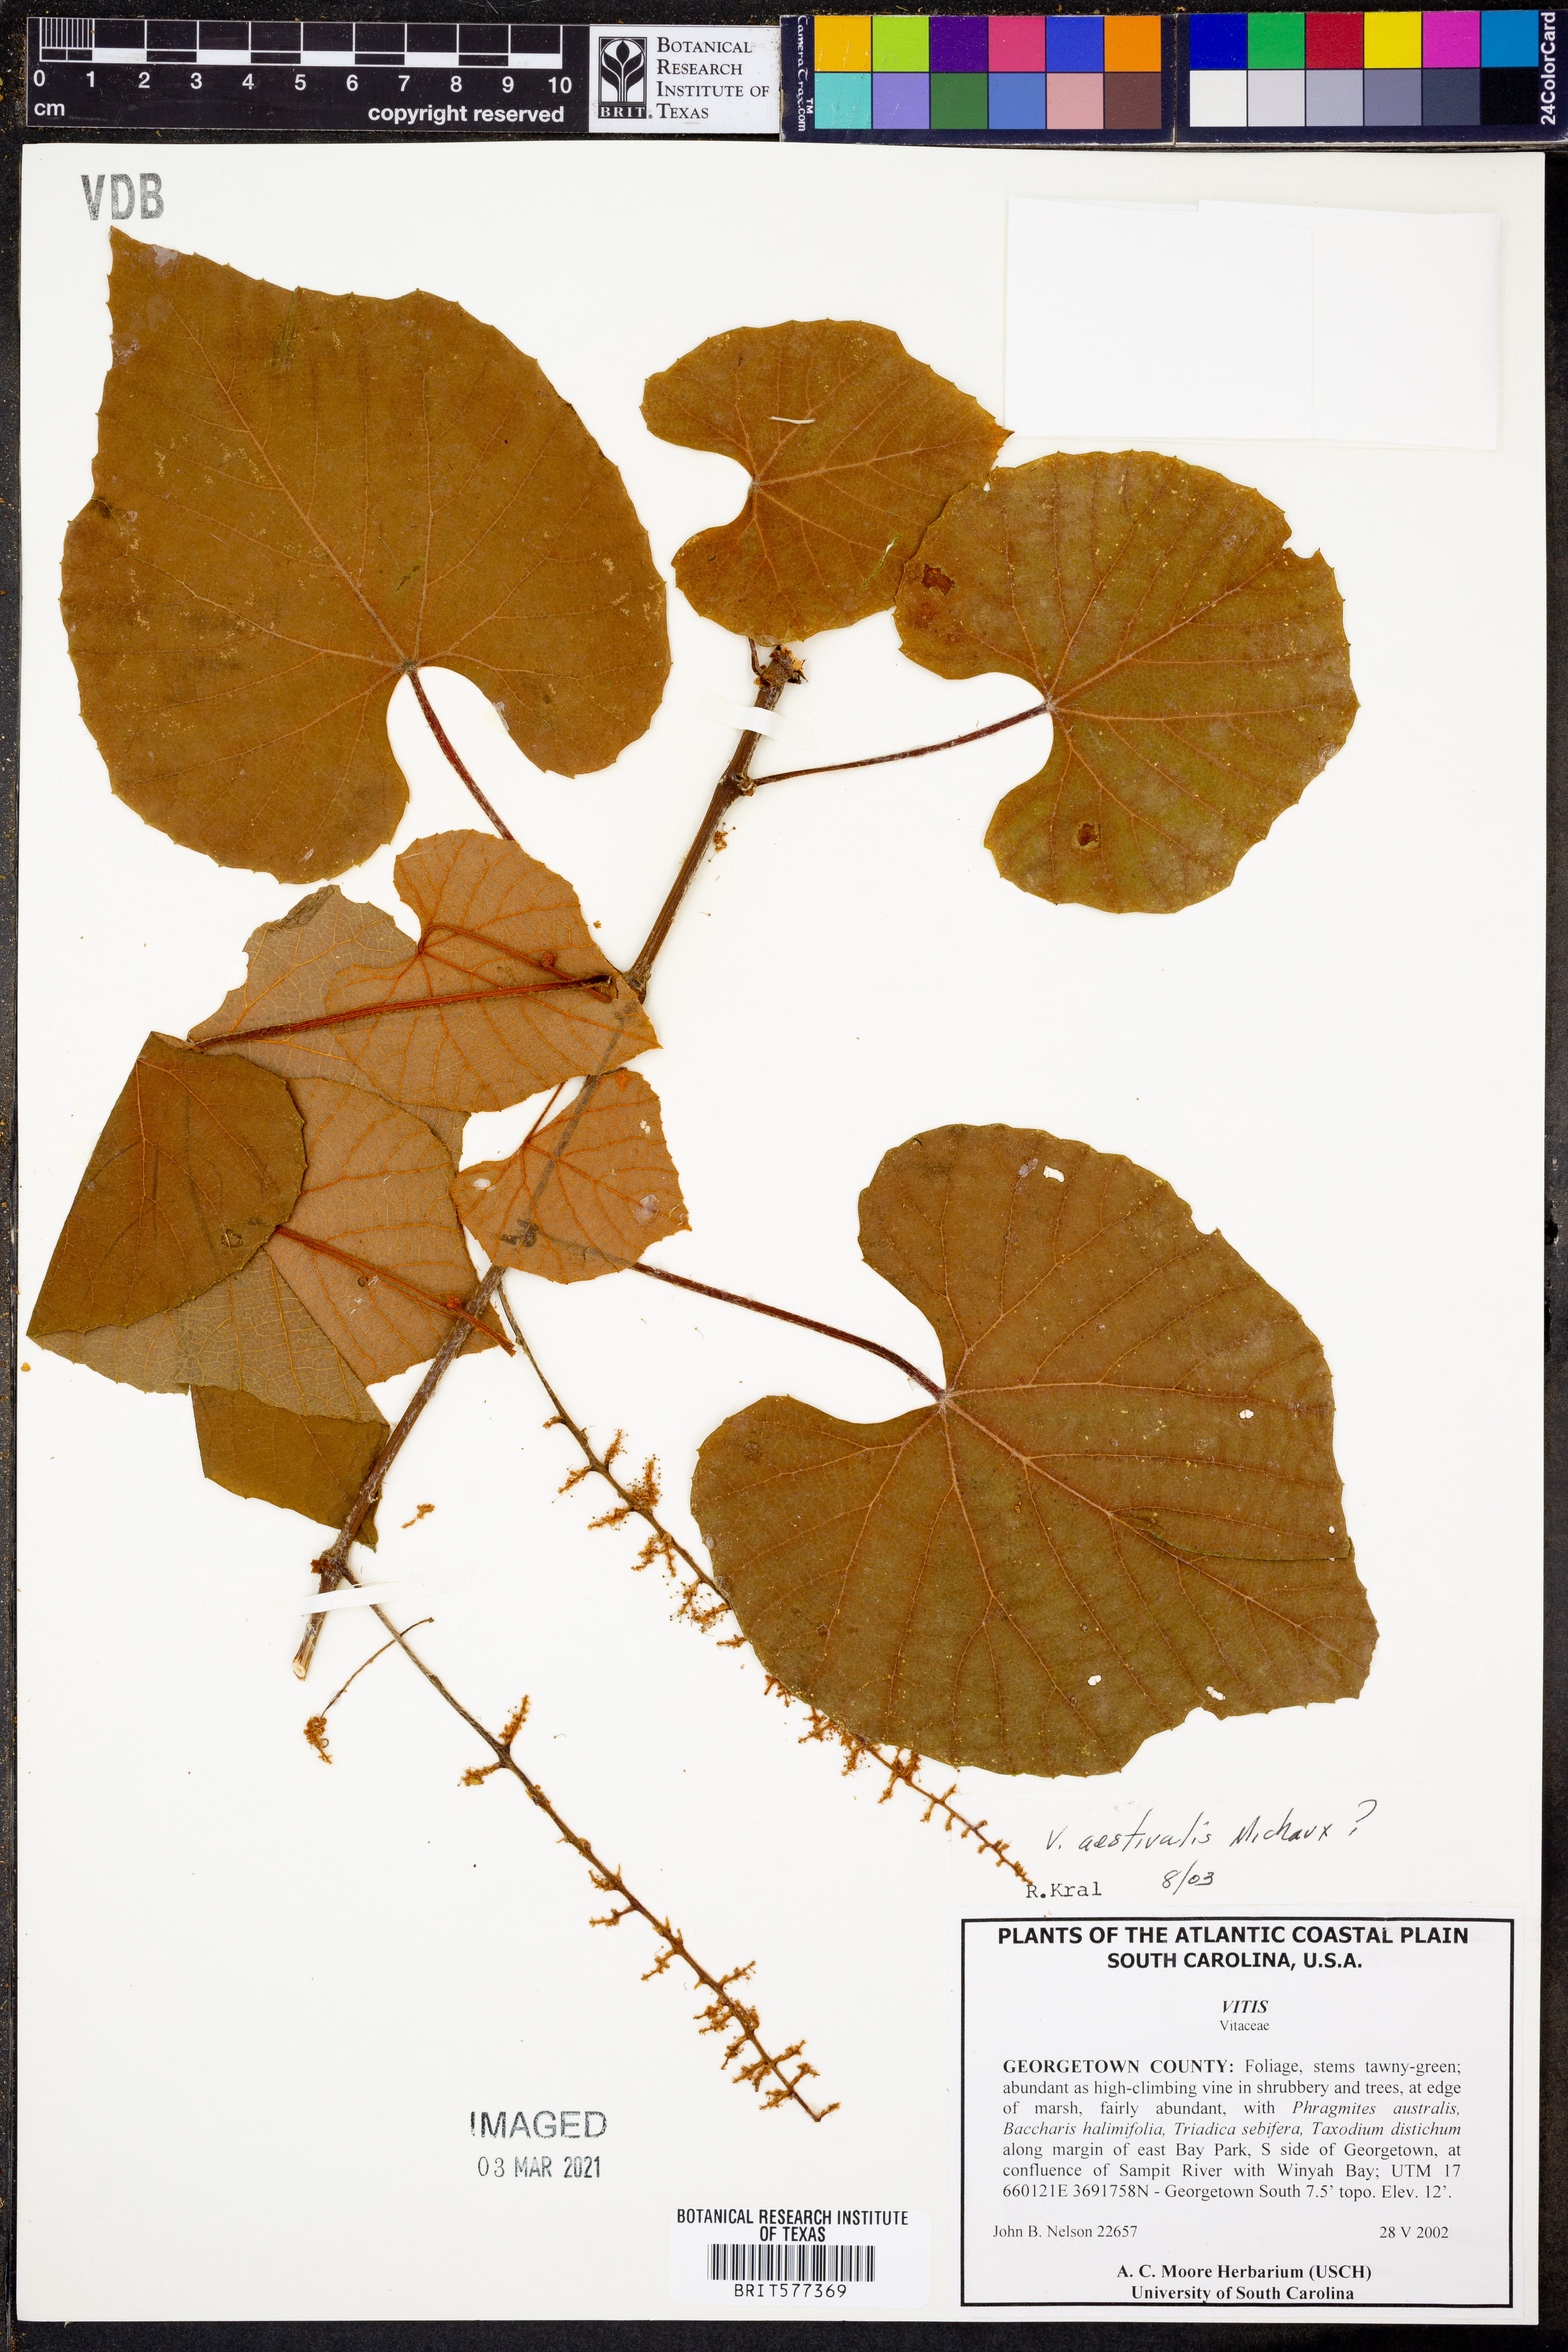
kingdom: Plantae
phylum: Tracheophyta
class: Magnoliopsida
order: Vitales
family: Vitaceae
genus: Vitis
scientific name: Vitis aestivalis
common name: Pigeon grape
